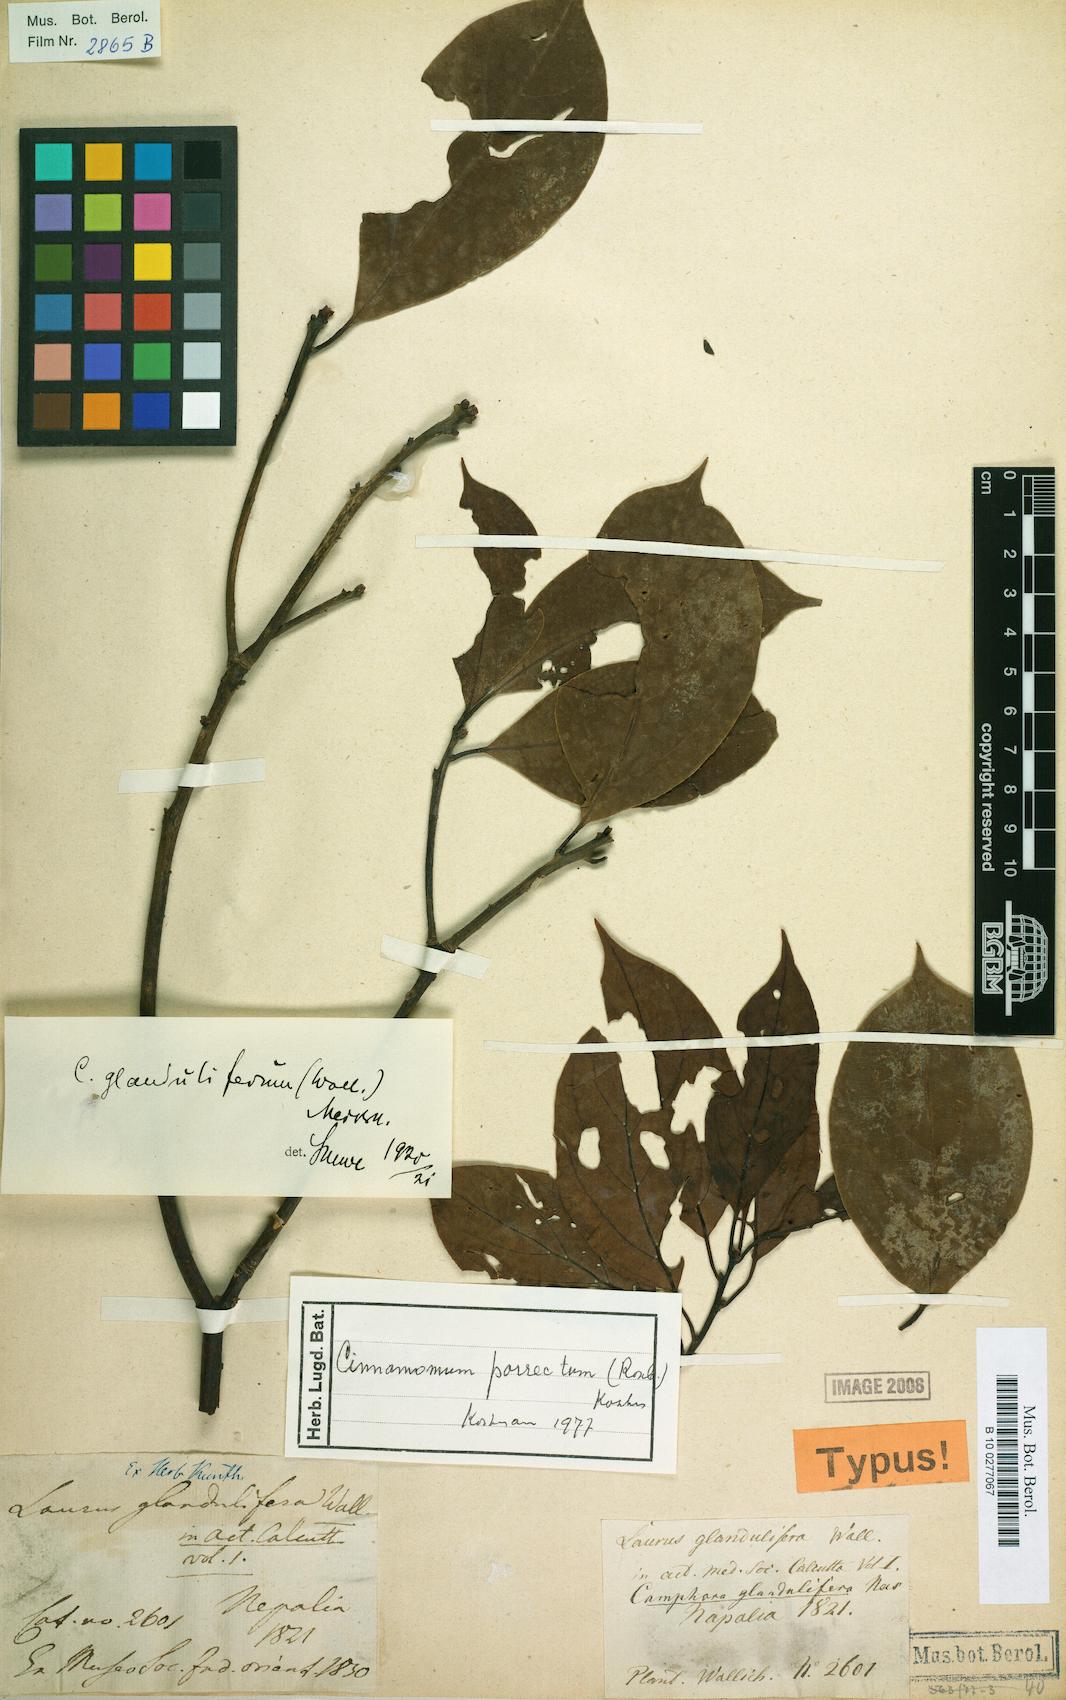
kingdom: Plantae
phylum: Tracheophyta
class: Magnoliopsida
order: Laurales
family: Lauraceae
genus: Cinnamomum
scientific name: Cinnamomum parthenoxylon
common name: Martaban camphor wood
